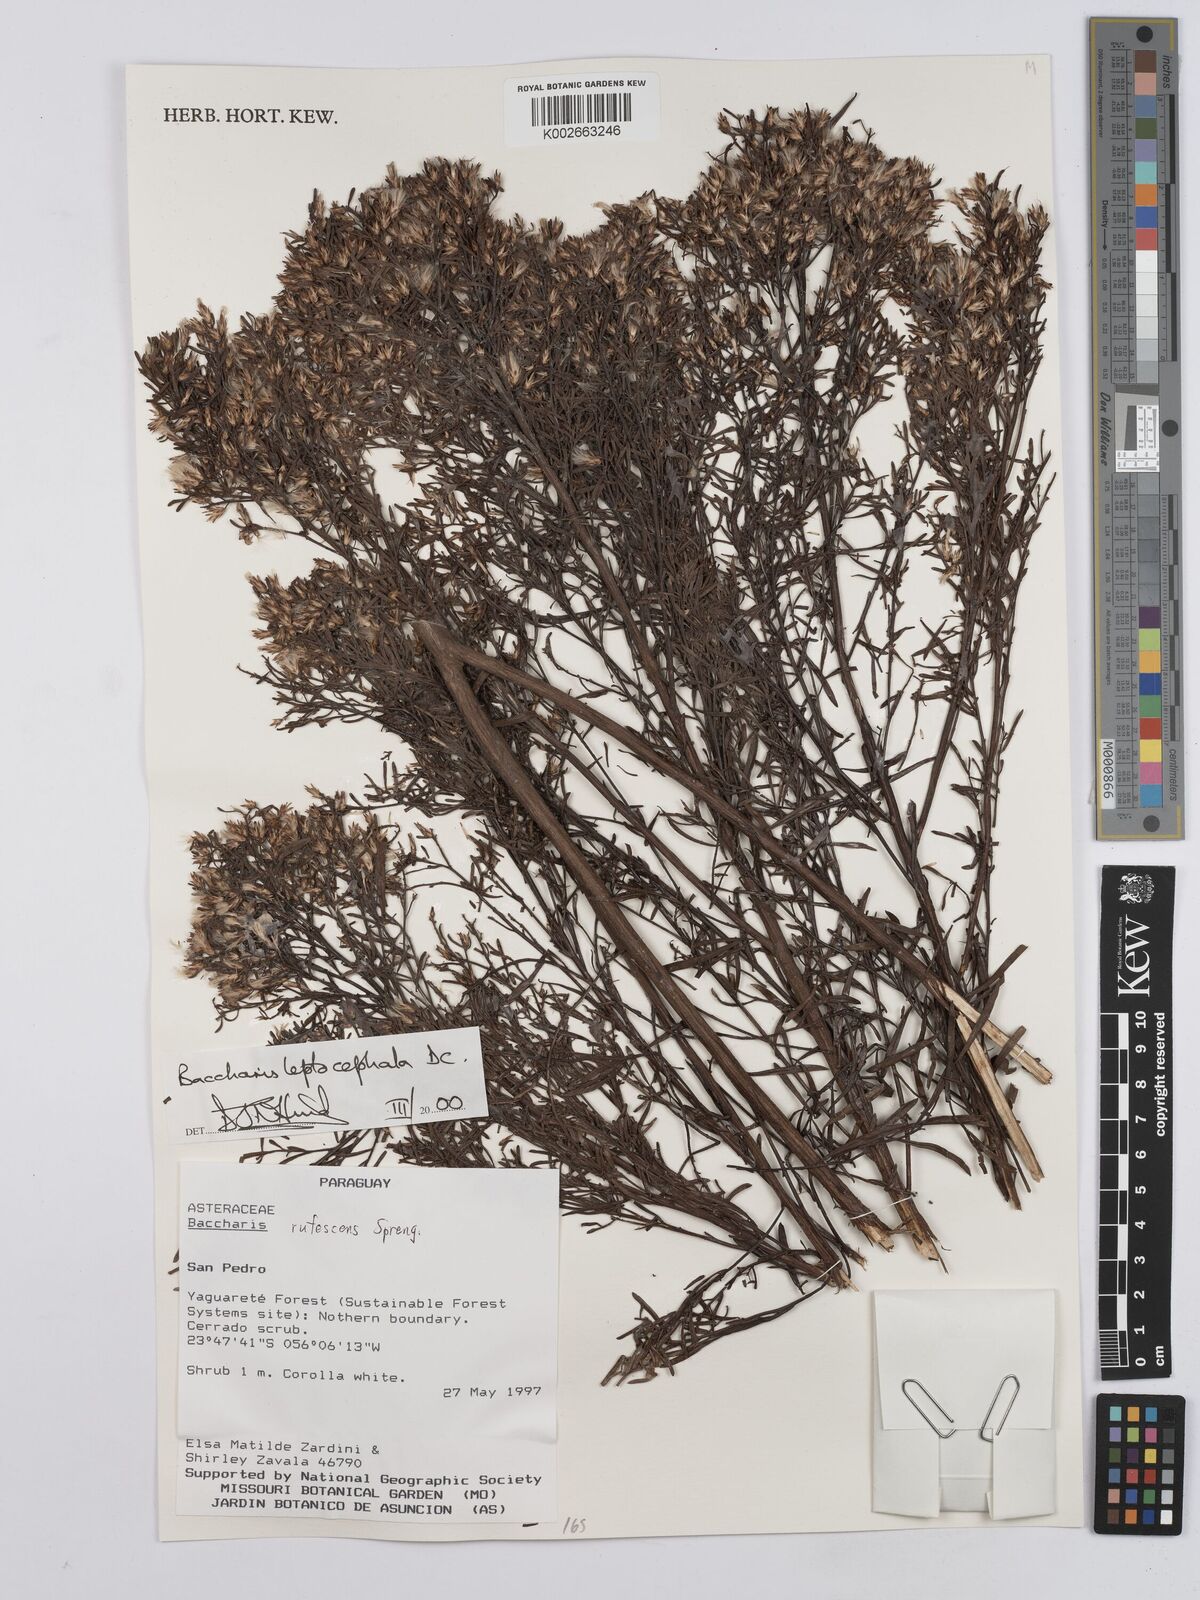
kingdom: Plantae
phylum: Tracheophyta
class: Magnoliopsida
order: Asterales
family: Asteraceae
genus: Baccharis
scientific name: Baccharis rufescens
